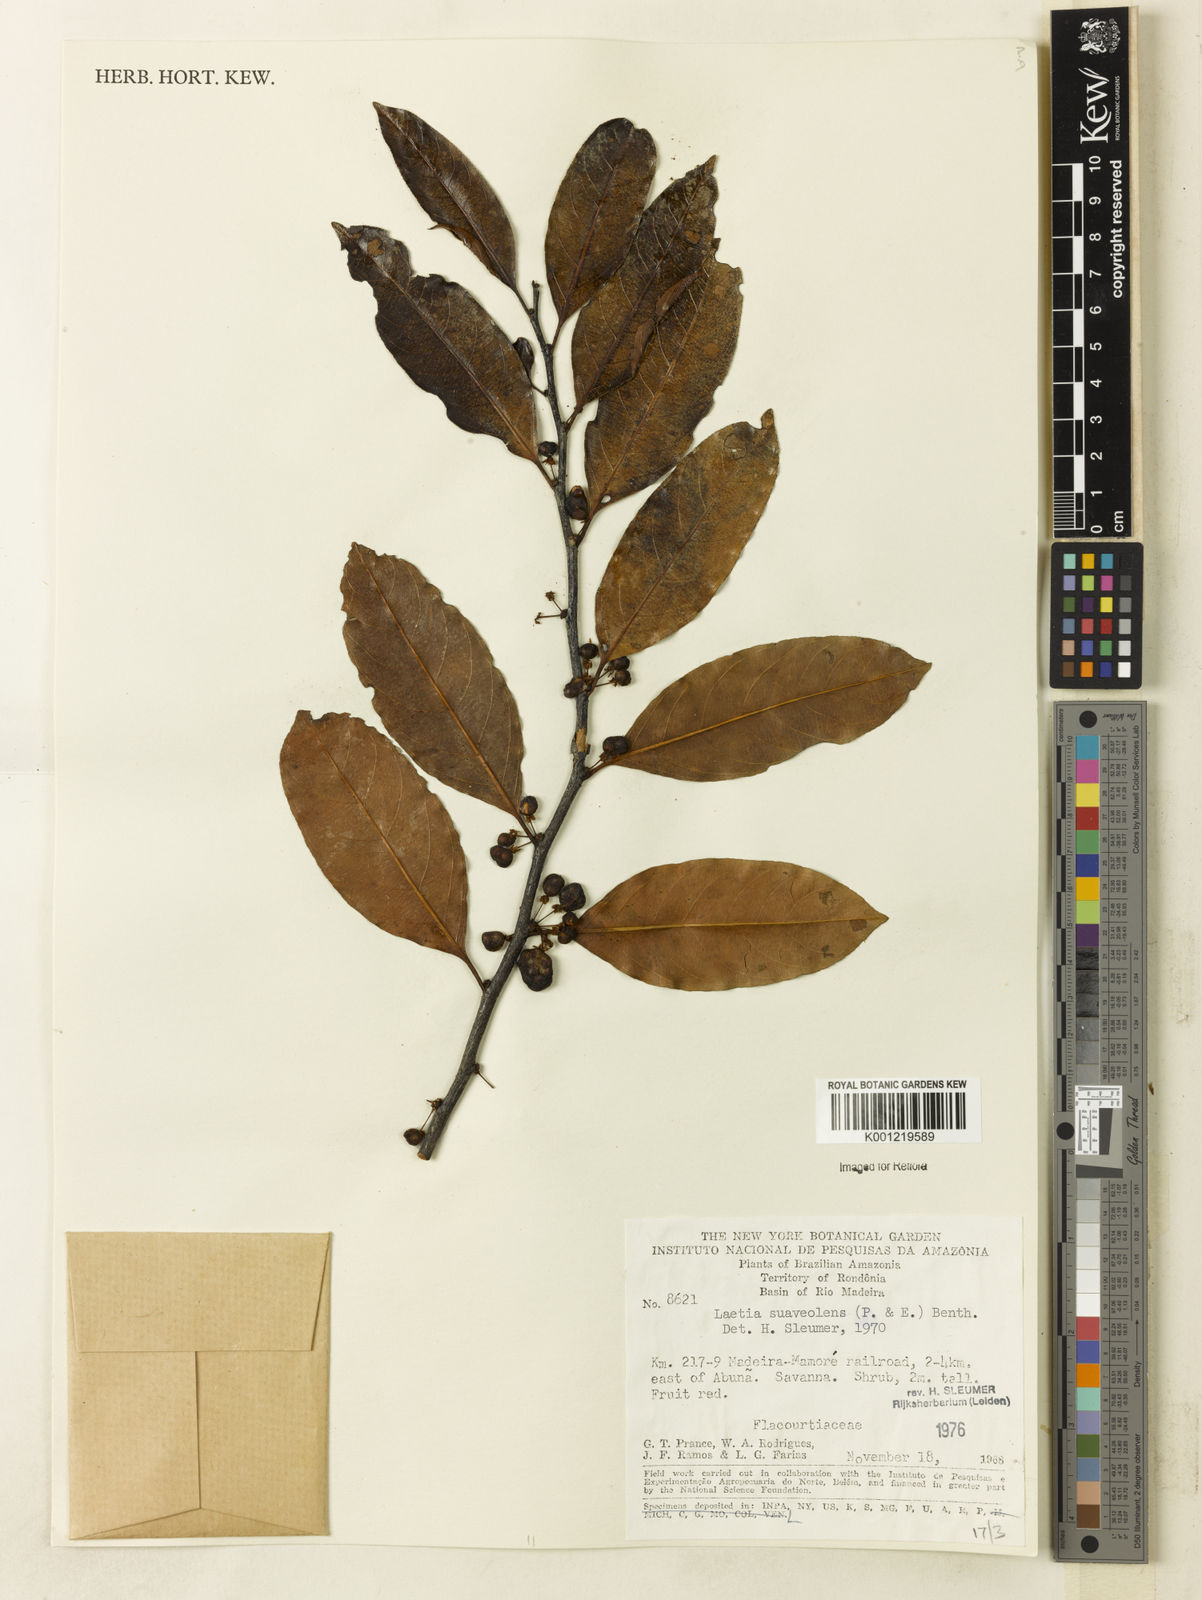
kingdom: Plantae
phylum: Tracheophyta
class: Magnoliopsida
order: Malpighiales
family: Salicaceae
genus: Casearia
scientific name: Casearia suaveolens
